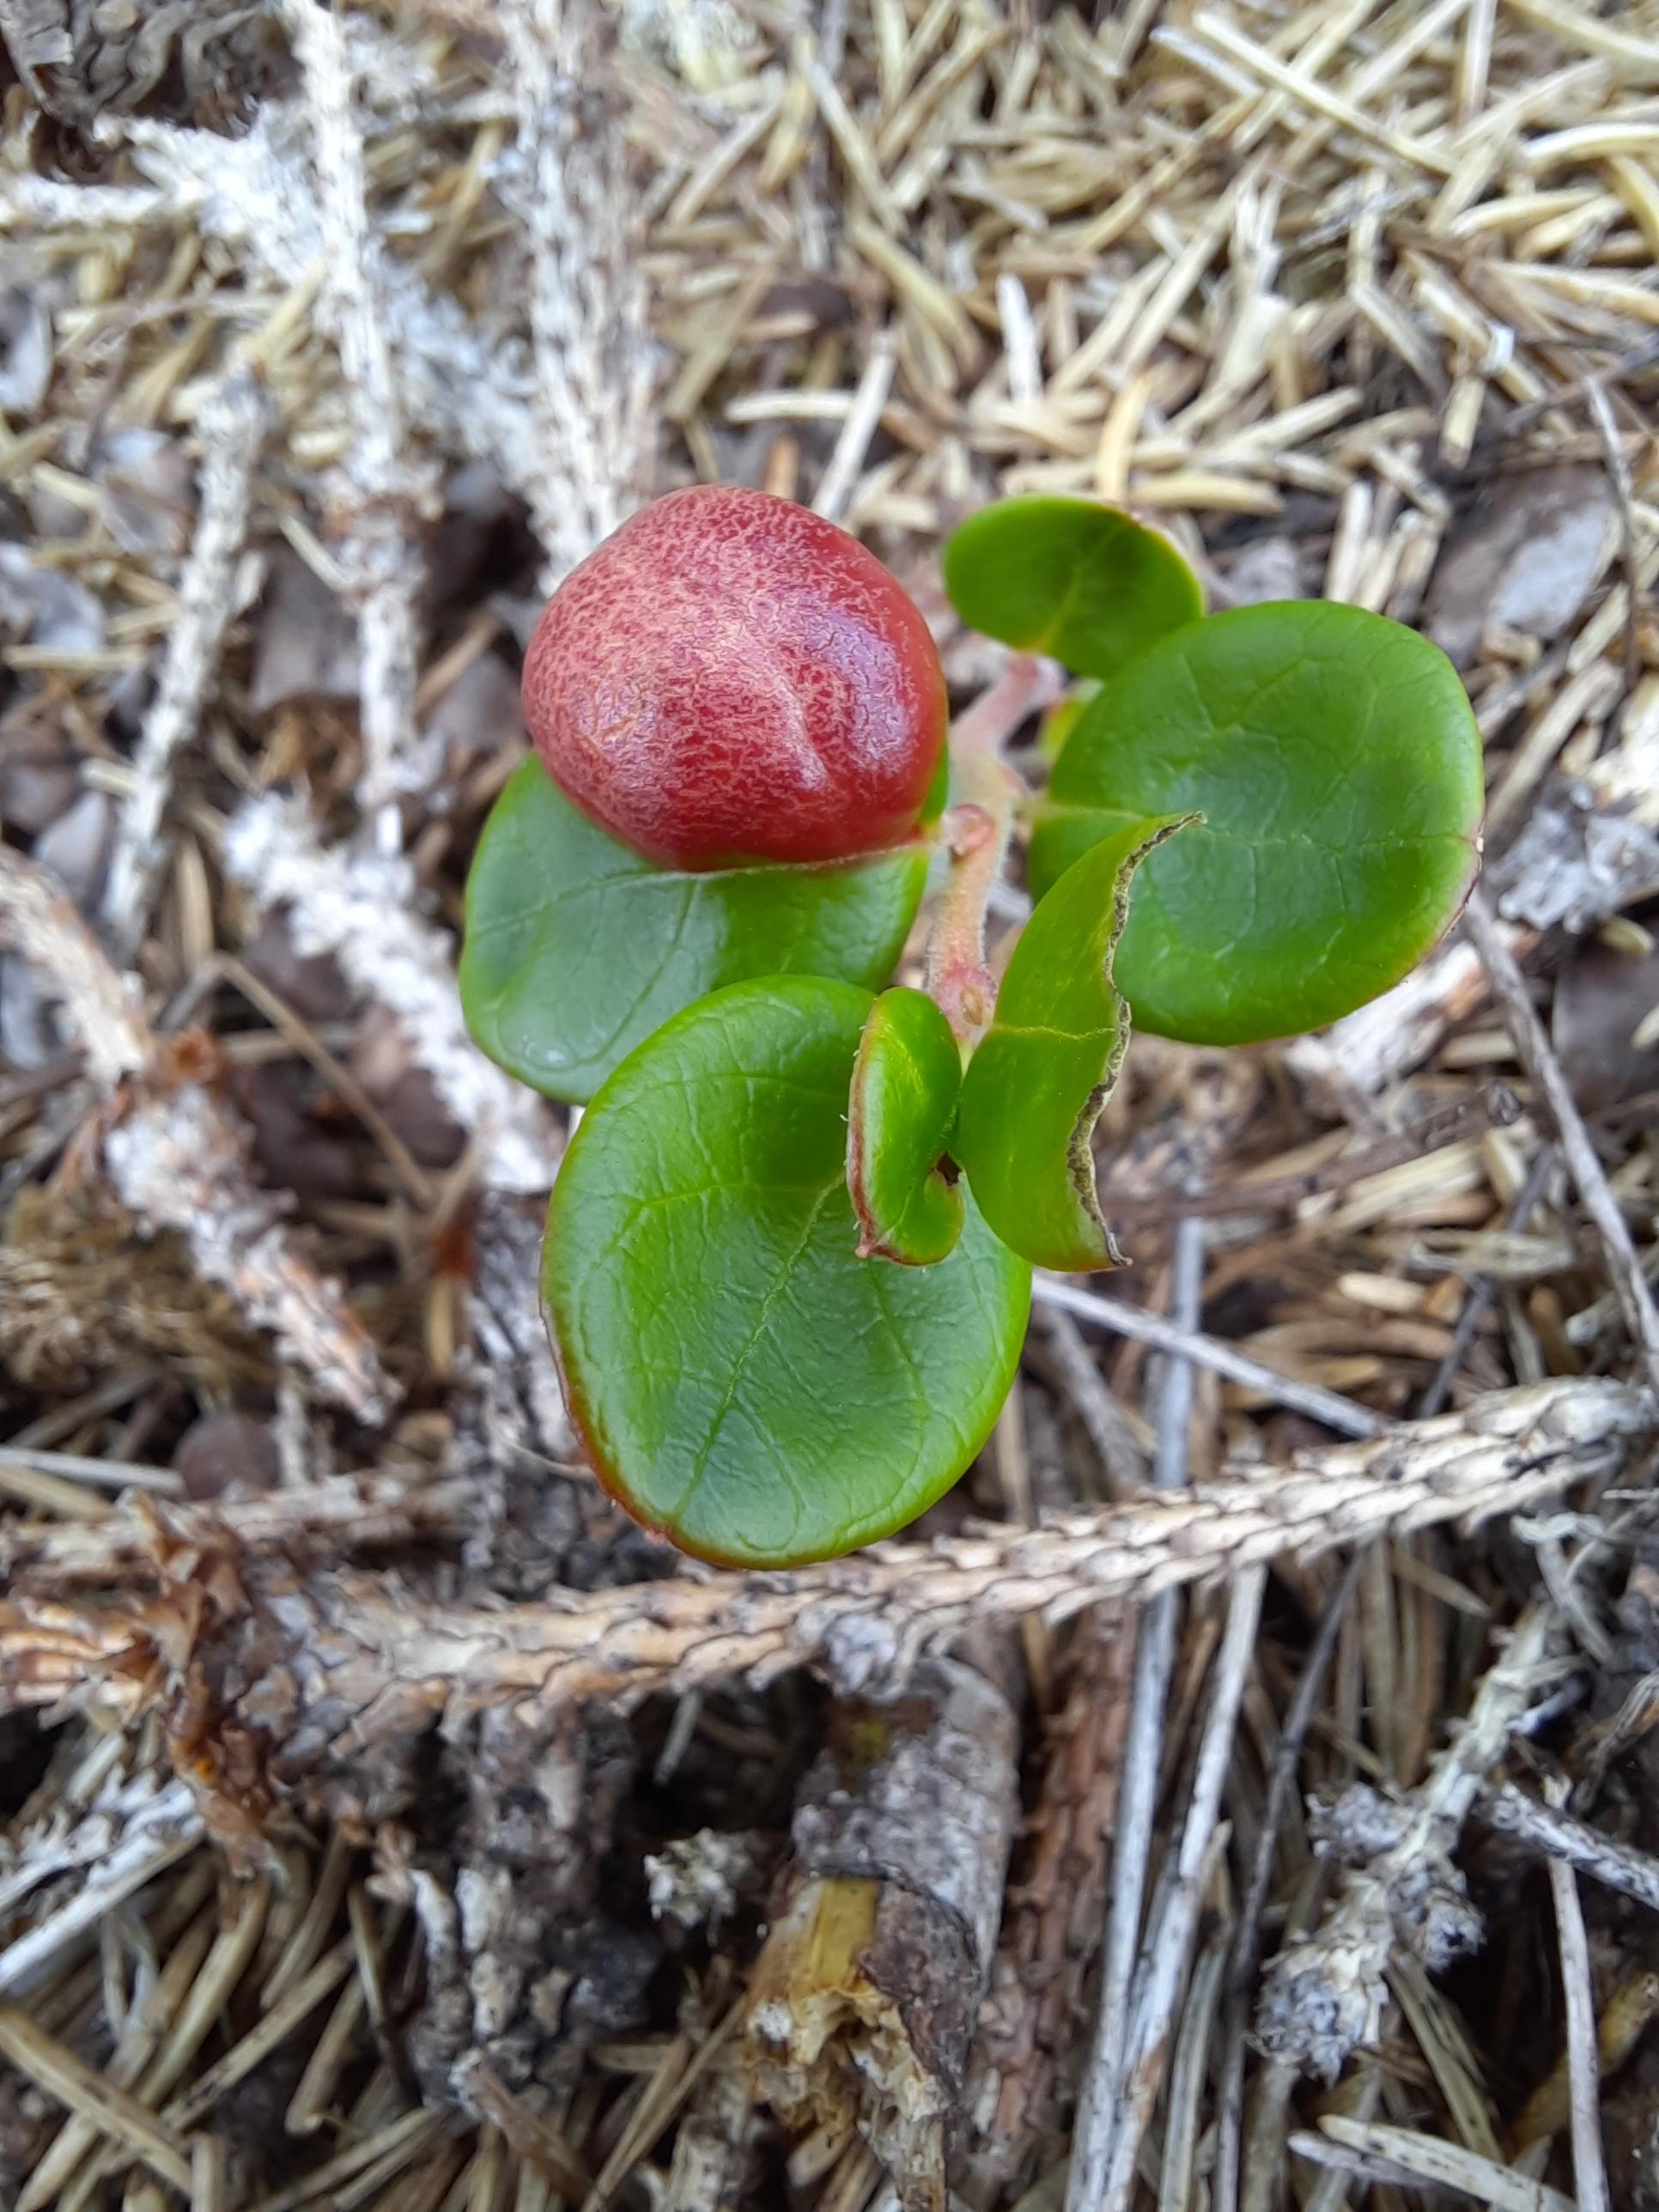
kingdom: Fungi
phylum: Basidiomycota
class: Exobasidiomycetes
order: Exobasidiales
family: Exobasidiaceae
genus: Exobasidium
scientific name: Exobasidium vaccinii
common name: tyttebærblad-bøllesvamp
